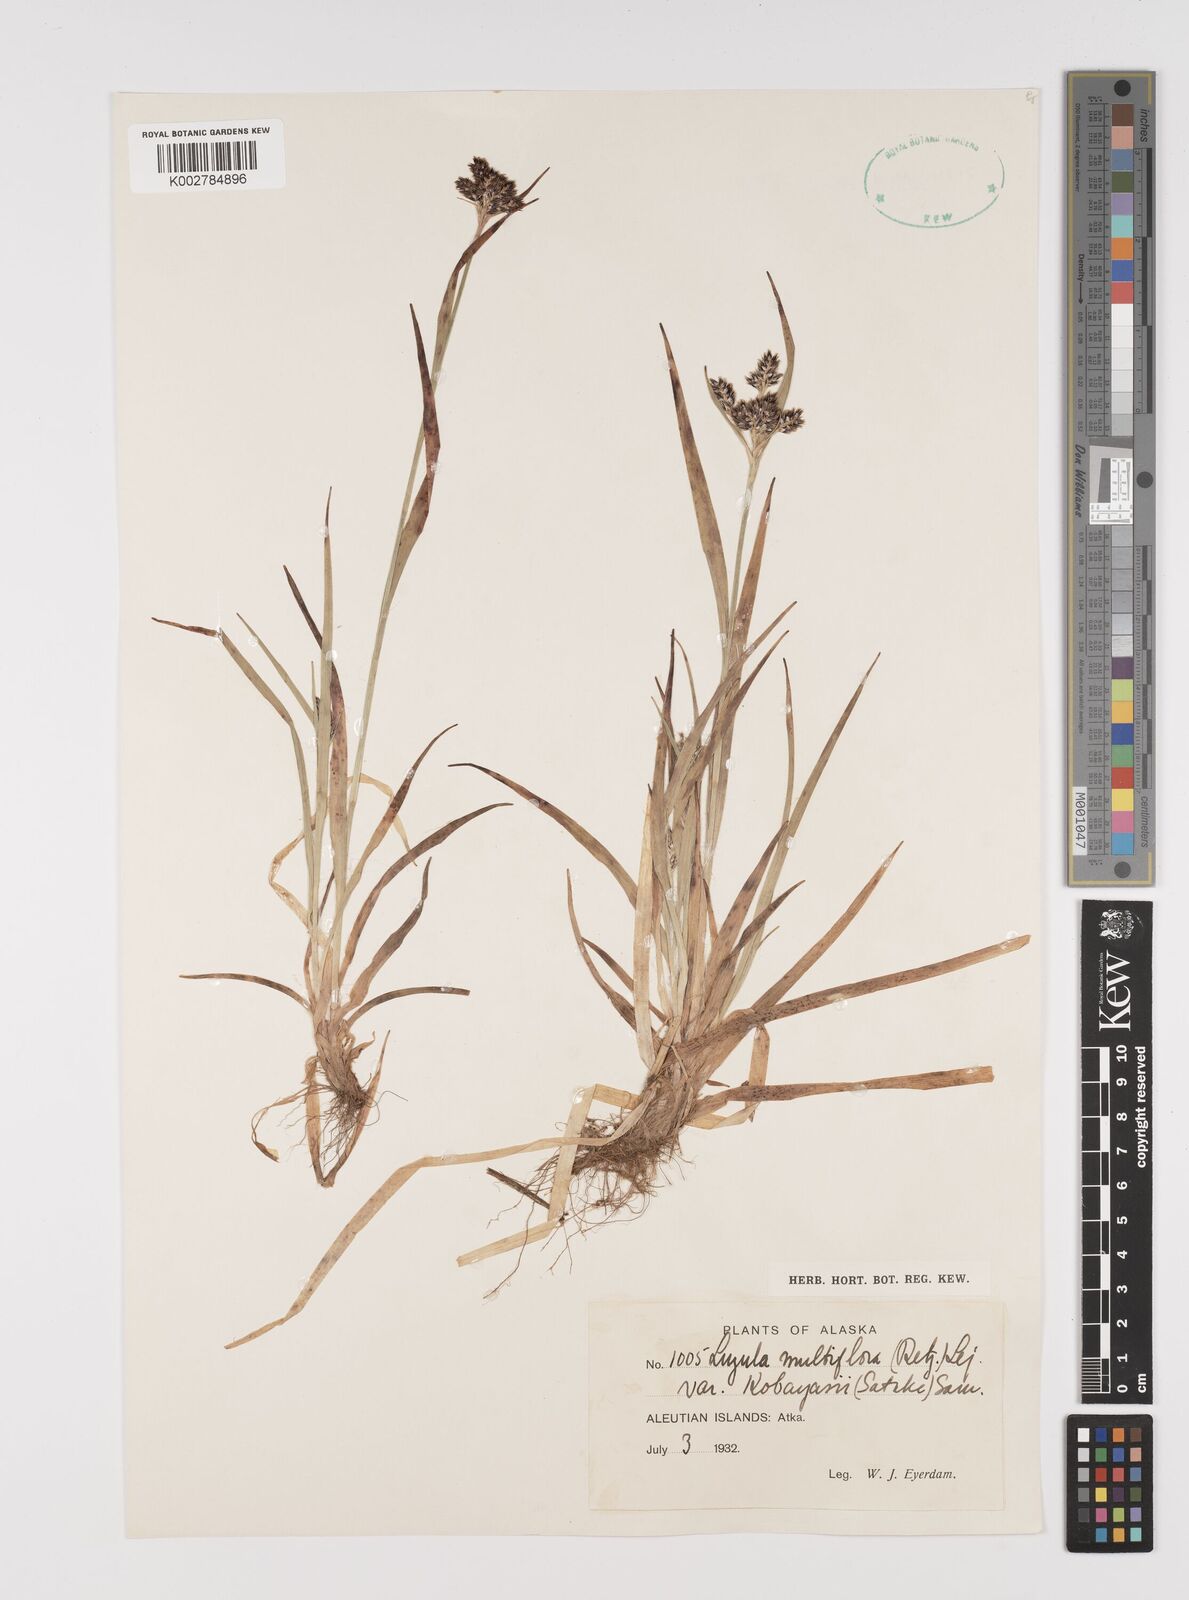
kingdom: Plantae
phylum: Tracheophyta
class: Liliopsida
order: Poales
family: Juncaceae
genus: Luzula
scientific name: Luzula kobayasii
